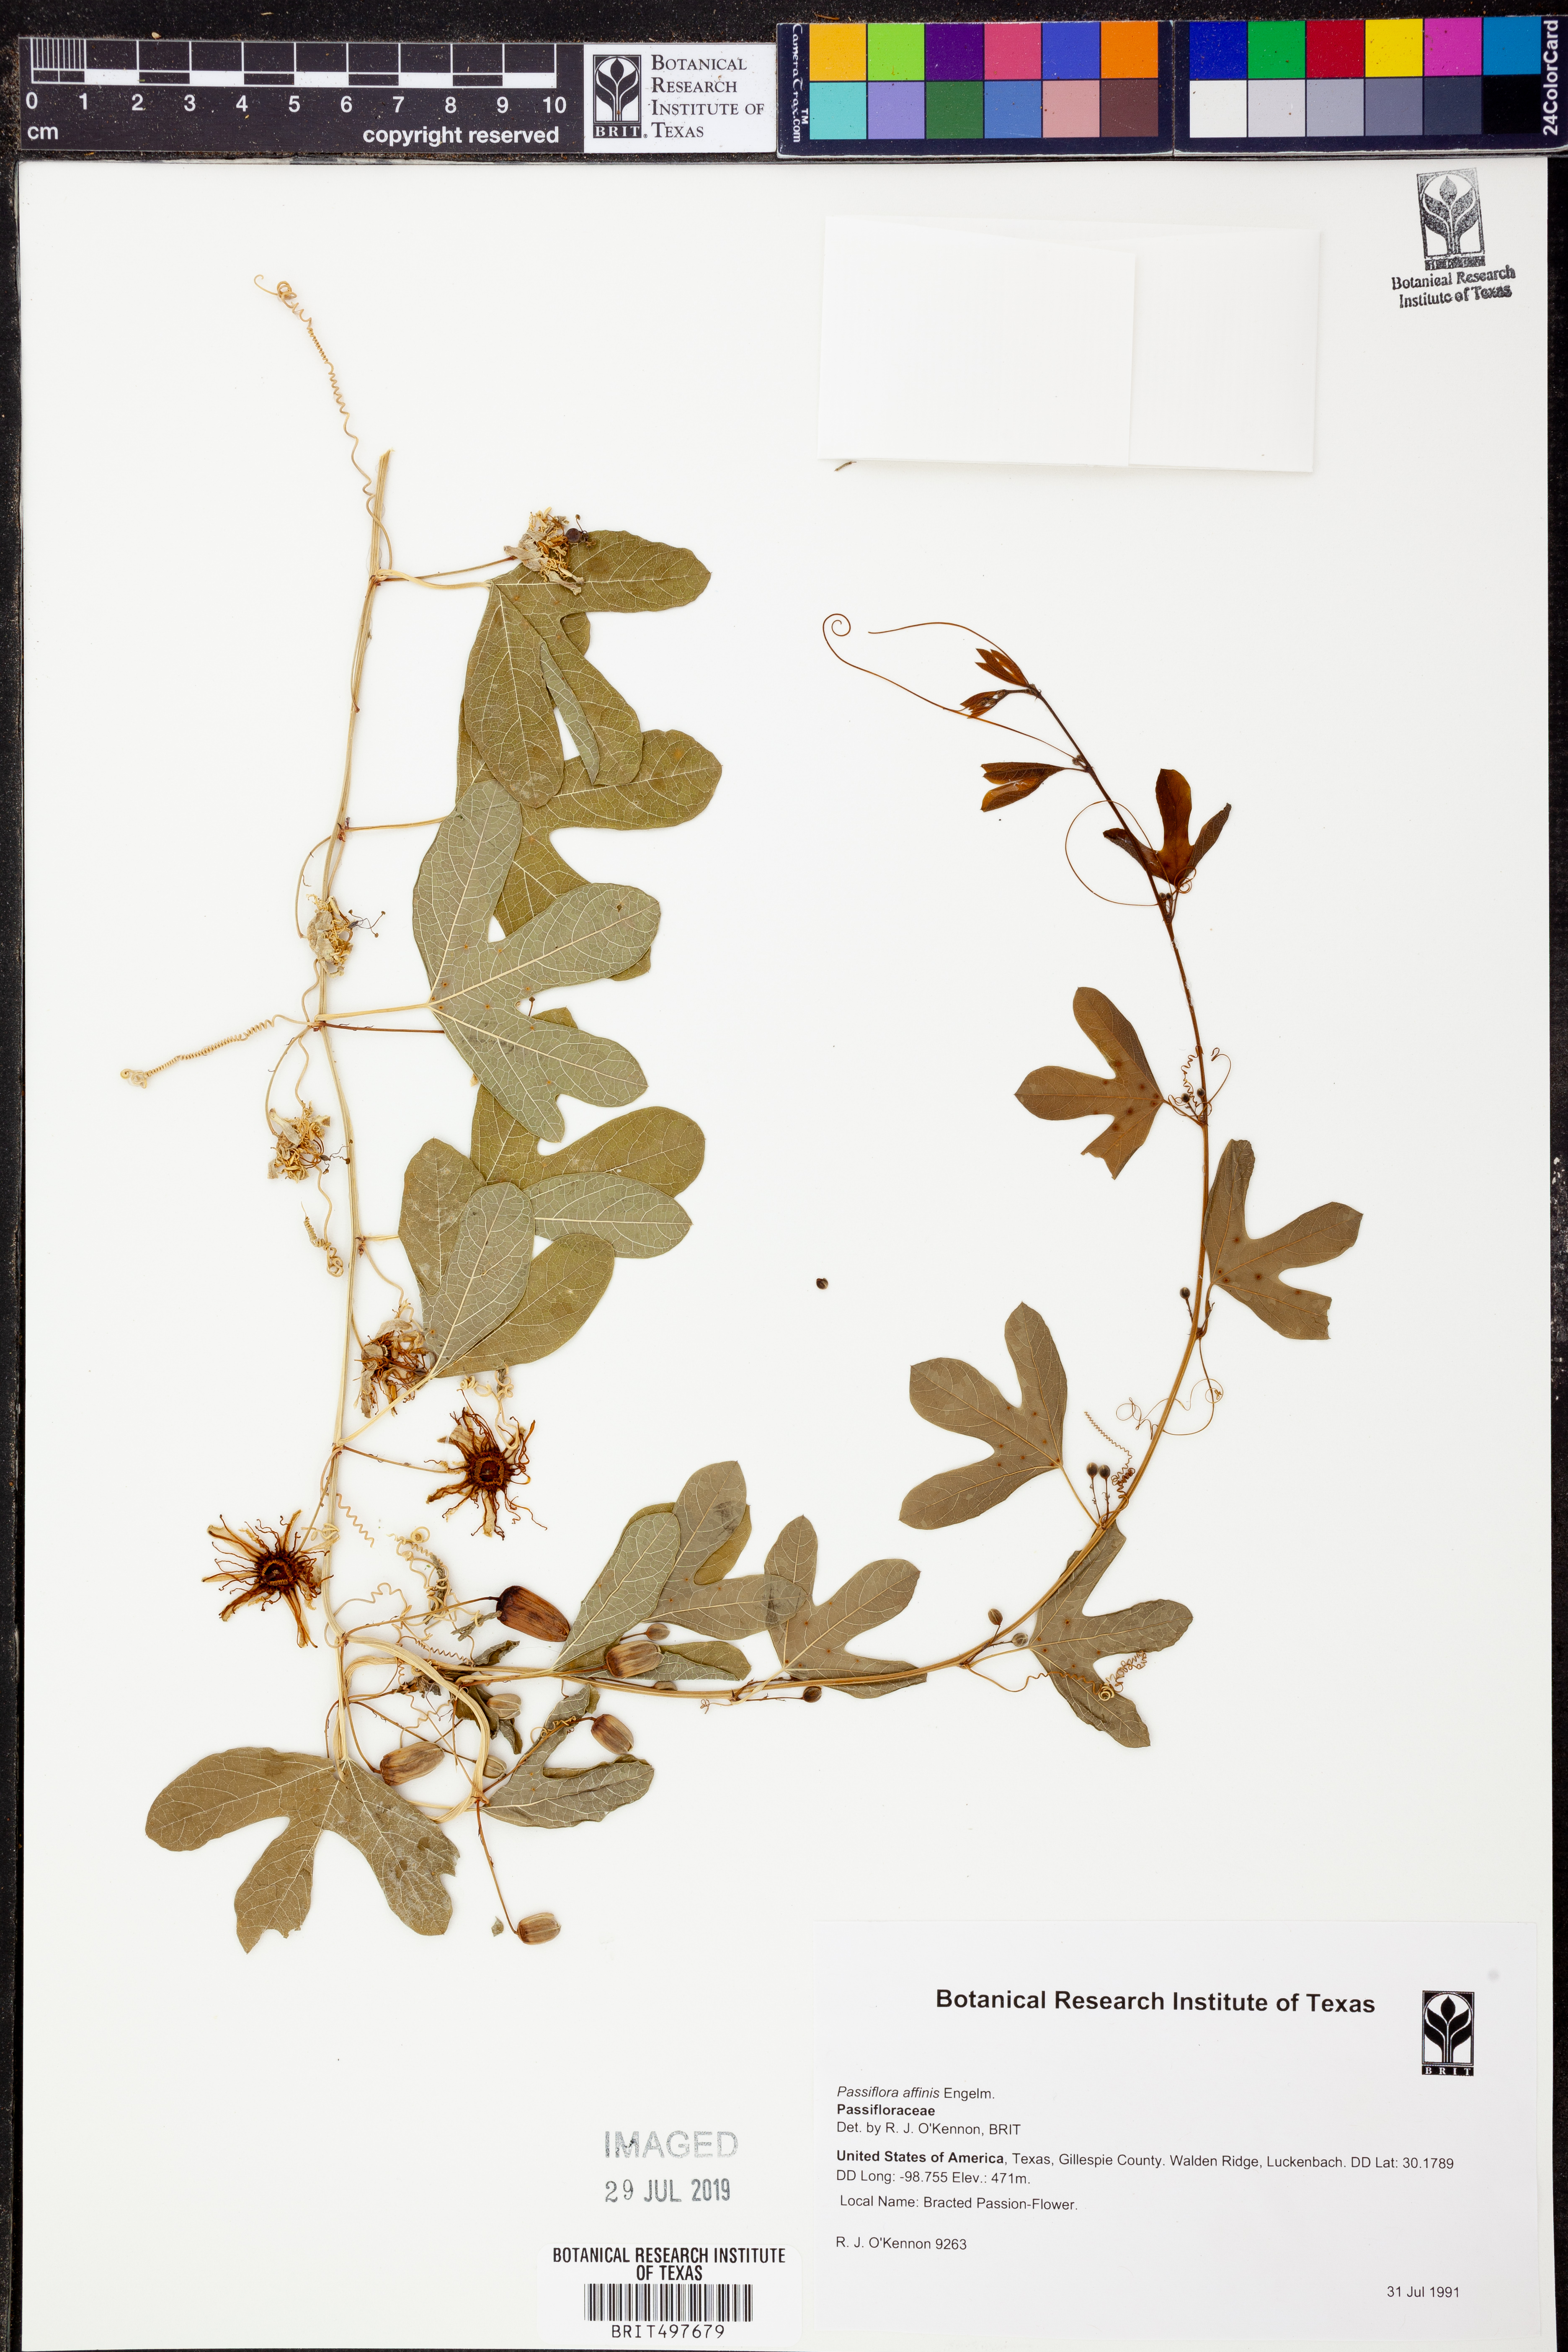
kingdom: Plantae
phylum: Tracheophyta
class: Magnoliopsida
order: Malpighiales
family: Passifloraceae
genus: Passiflora
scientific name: Passiflora affinis
